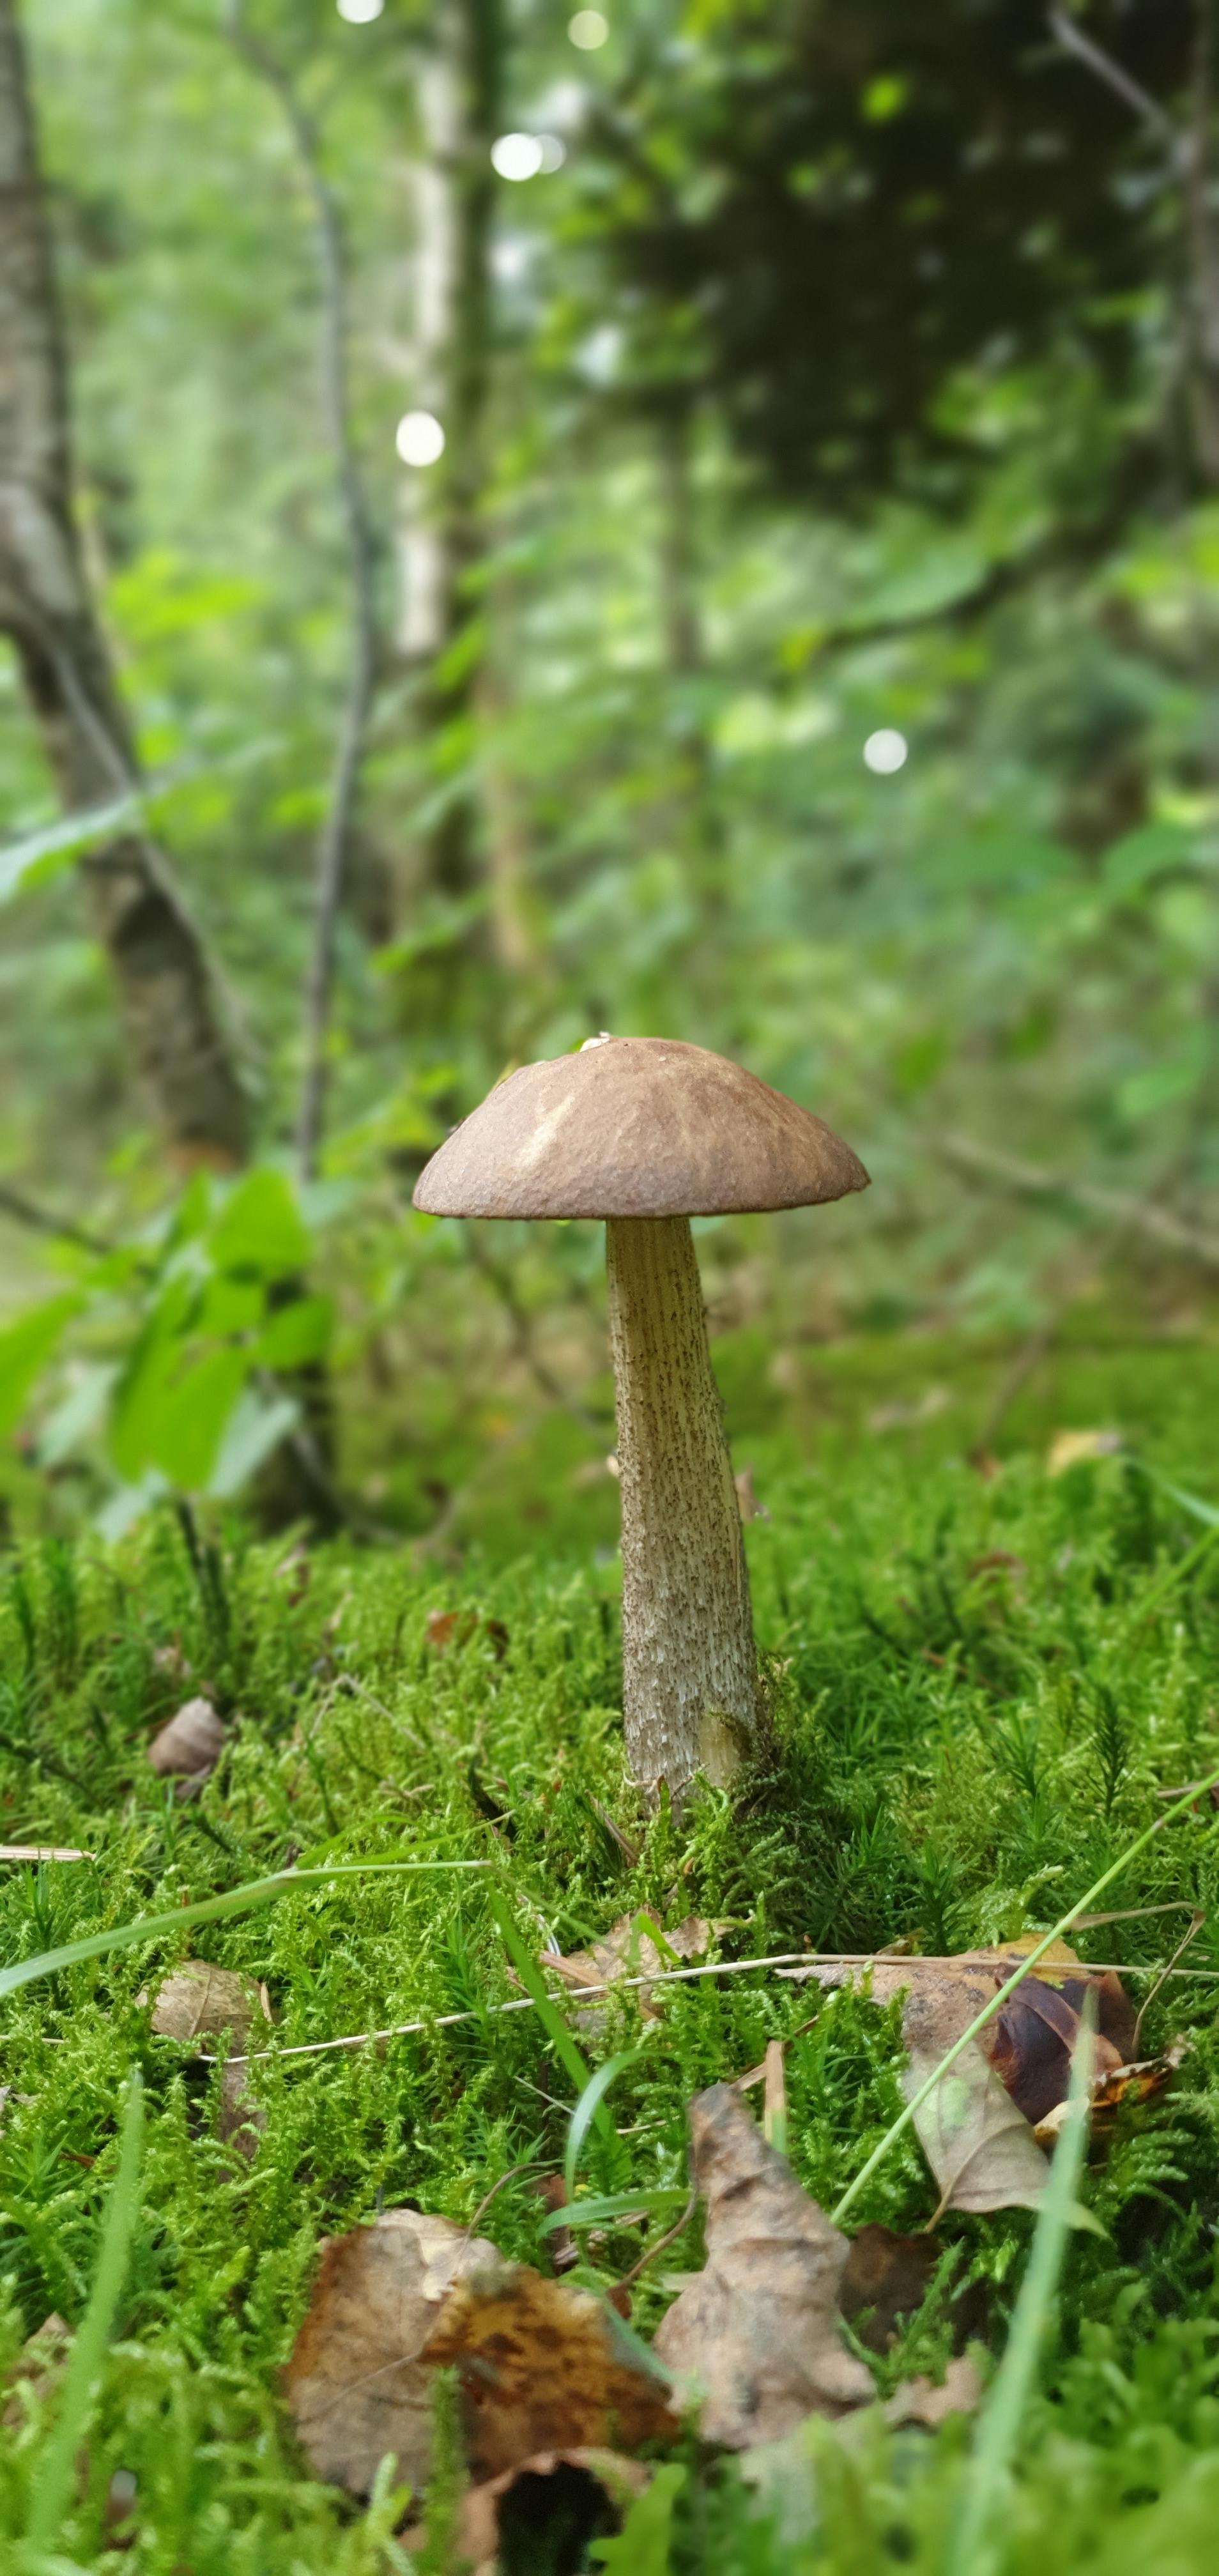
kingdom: Fungi
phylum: Basidiomycota
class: Agaricomycetes
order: Boletales
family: Boletaceae
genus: Leccinum
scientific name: Leccinum scabrum
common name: brun skælrørhat
